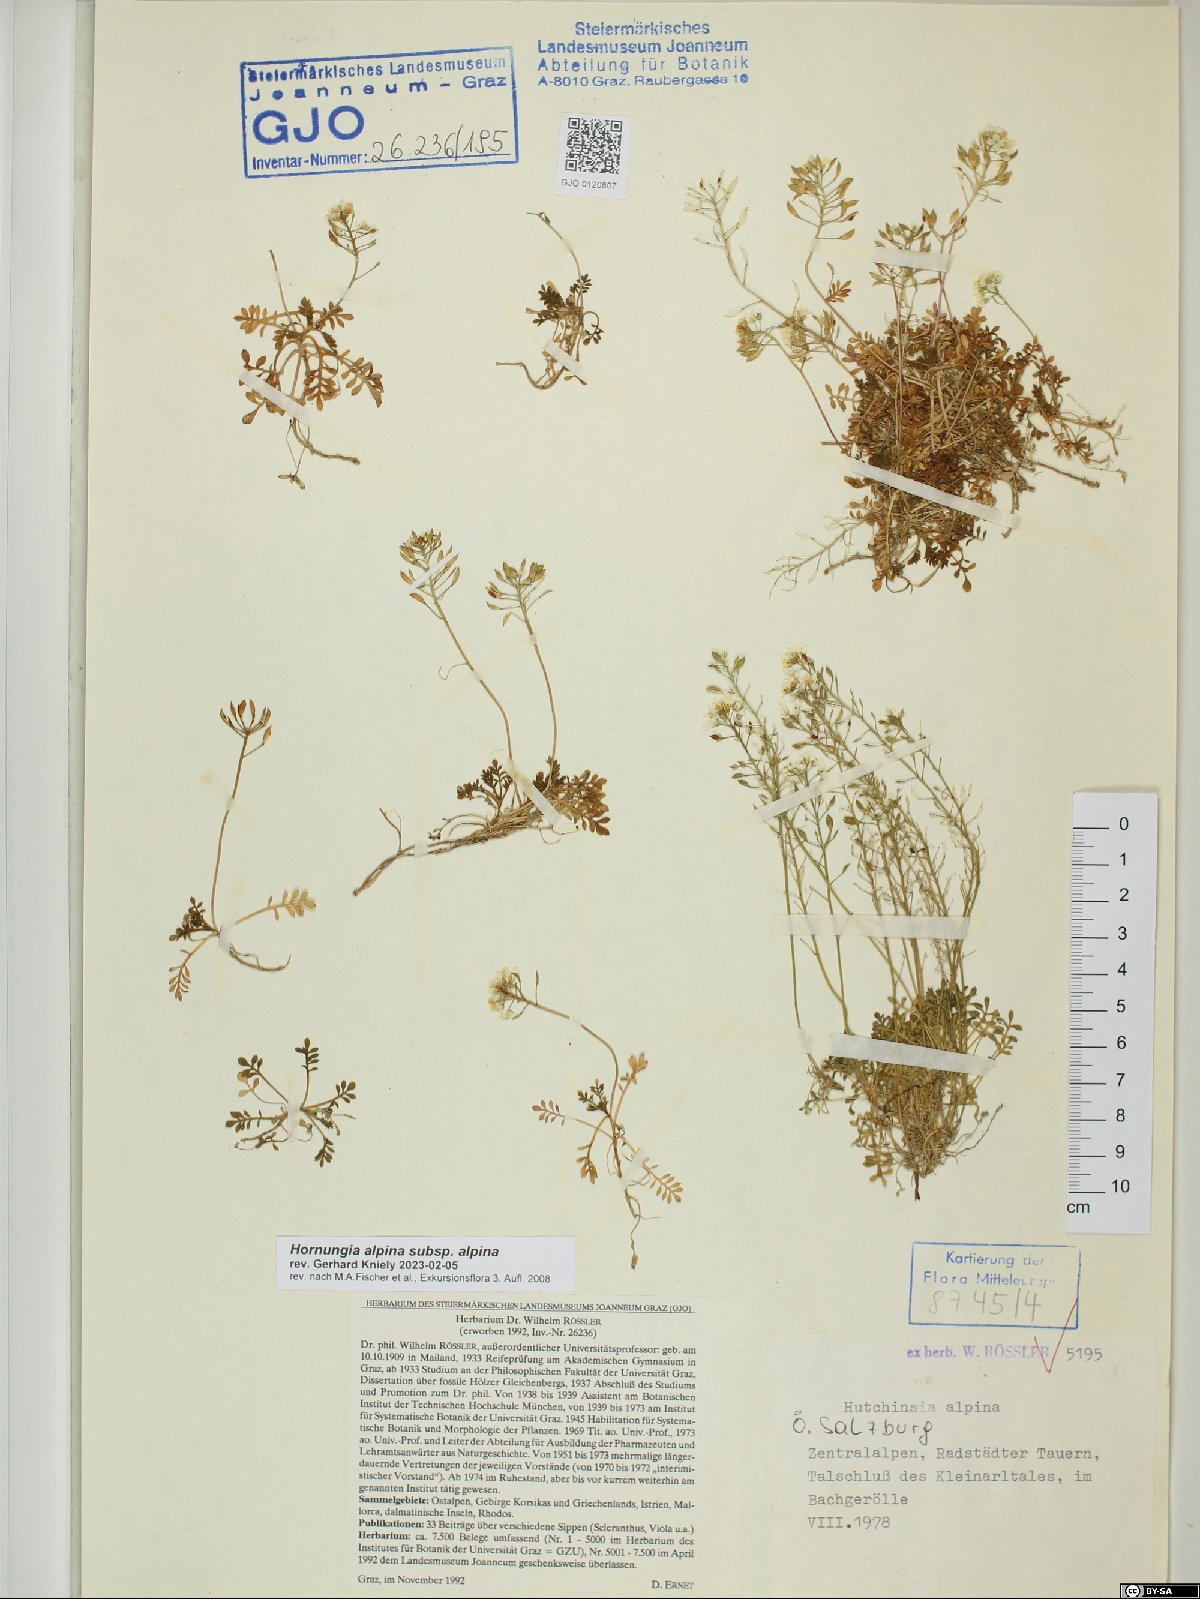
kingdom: Plantae
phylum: Tracheophyta
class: Magnoliopsida
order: Brassicales
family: Brassicaceae
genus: Hornungia
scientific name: Hornungia alpina
